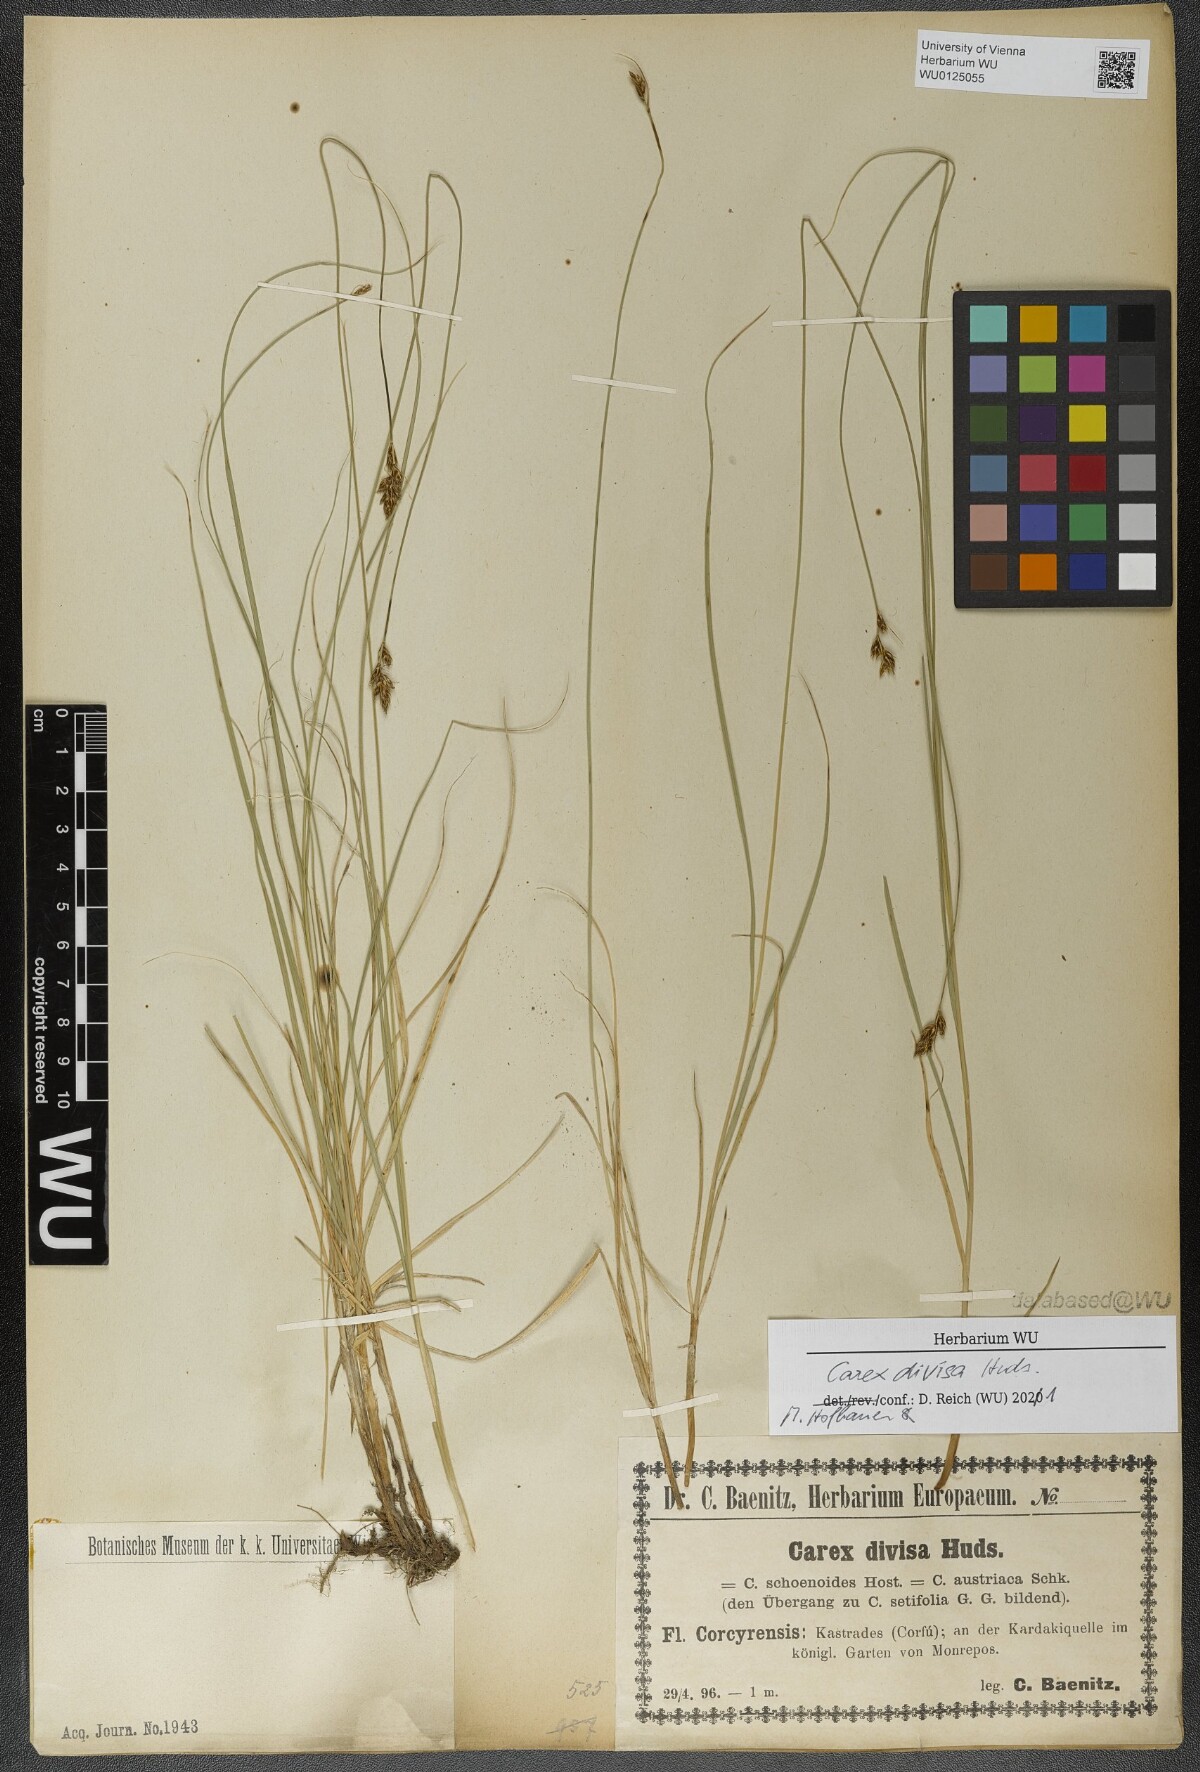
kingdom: Plantae
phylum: Tracheophyta
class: Liliopsida
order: Poales
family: Cyperaceae
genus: Carex
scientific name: Carex divisa
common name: Divided sedge
